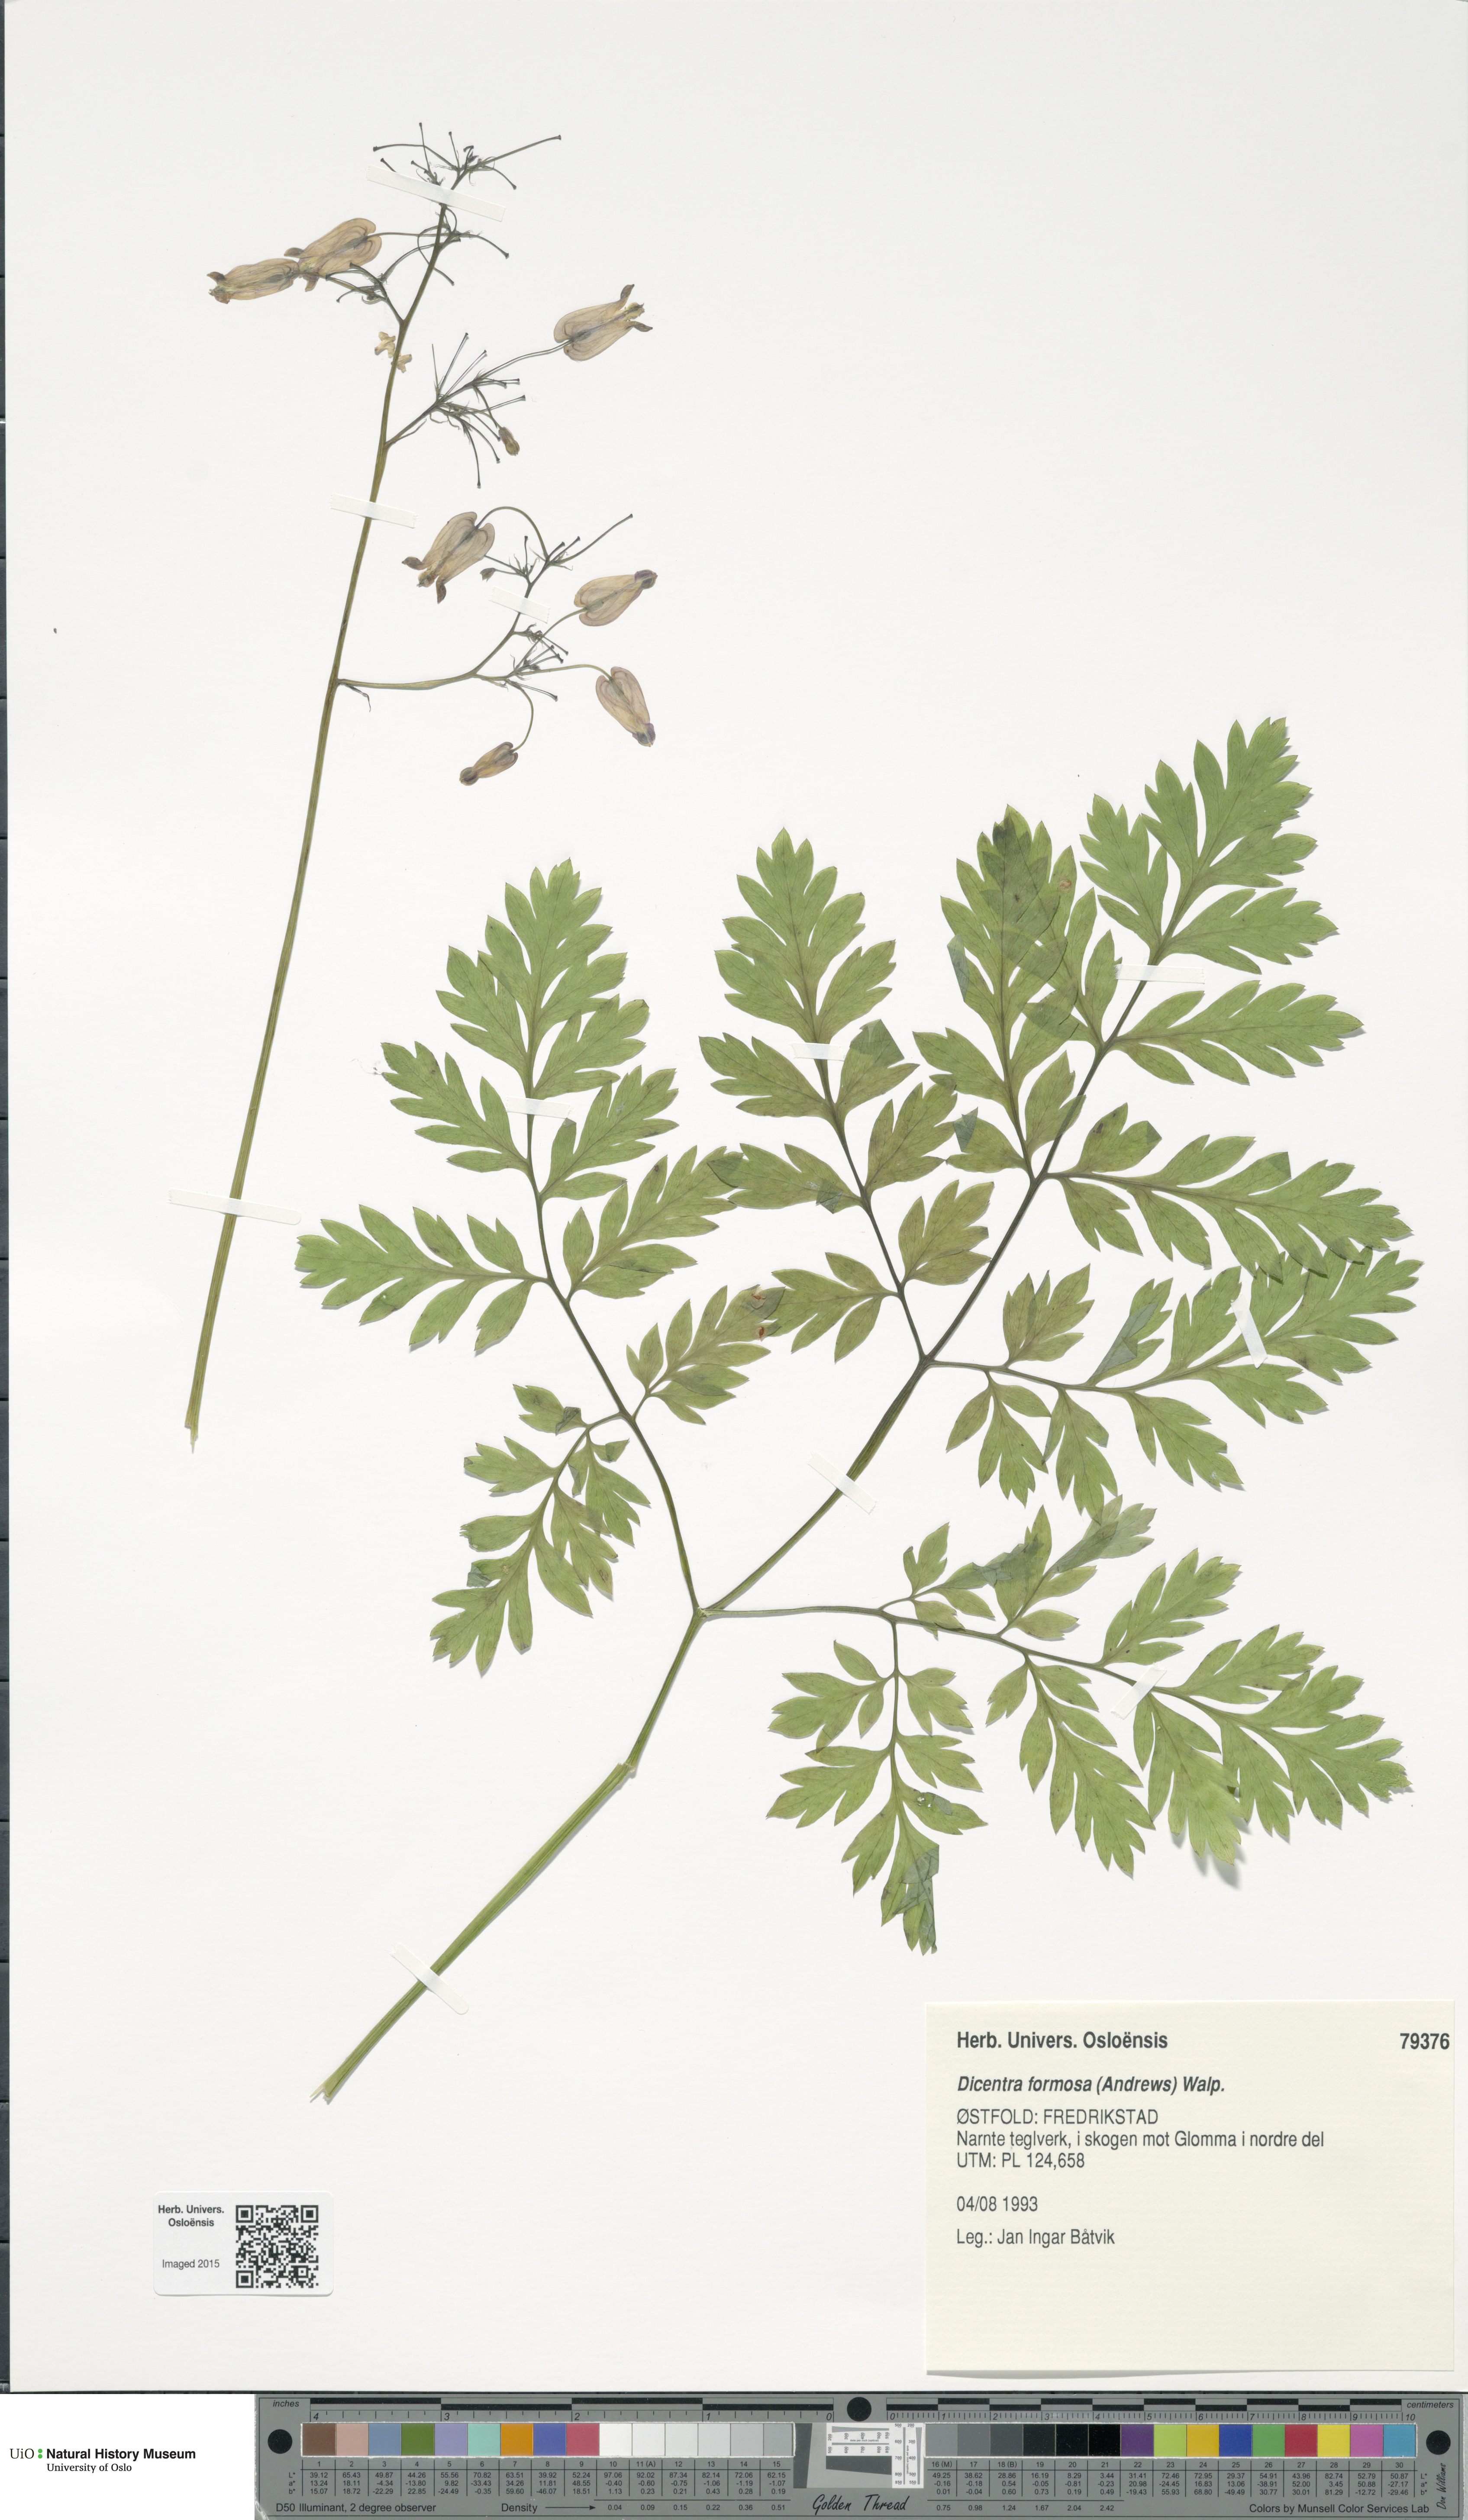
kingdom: Plantae
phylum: Tracheophyta
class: Magnoliopsida
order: Ranunculales
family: Papaveraceae
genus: Dicentra
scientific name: Dicentra formosa
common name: Bleeding-heart
